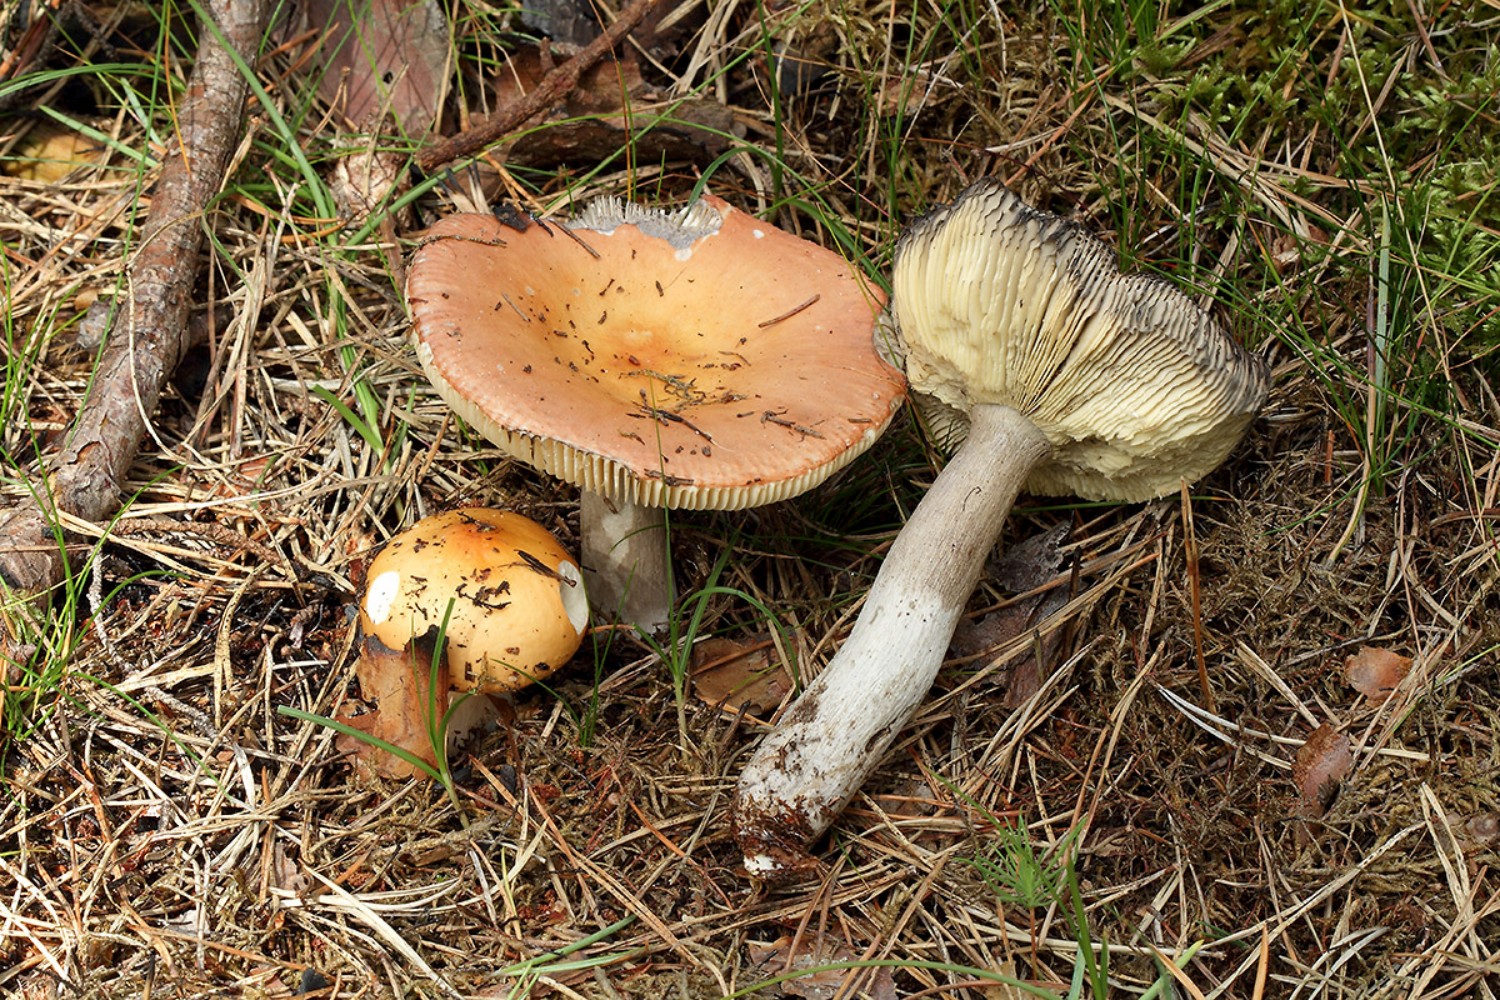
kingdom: Fungi
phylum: Basidiomycota
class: Agaricomycetes
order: Russulales
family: Russulaceae
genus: Russula
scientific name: Russula decolorans
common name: afblegende skørhat
